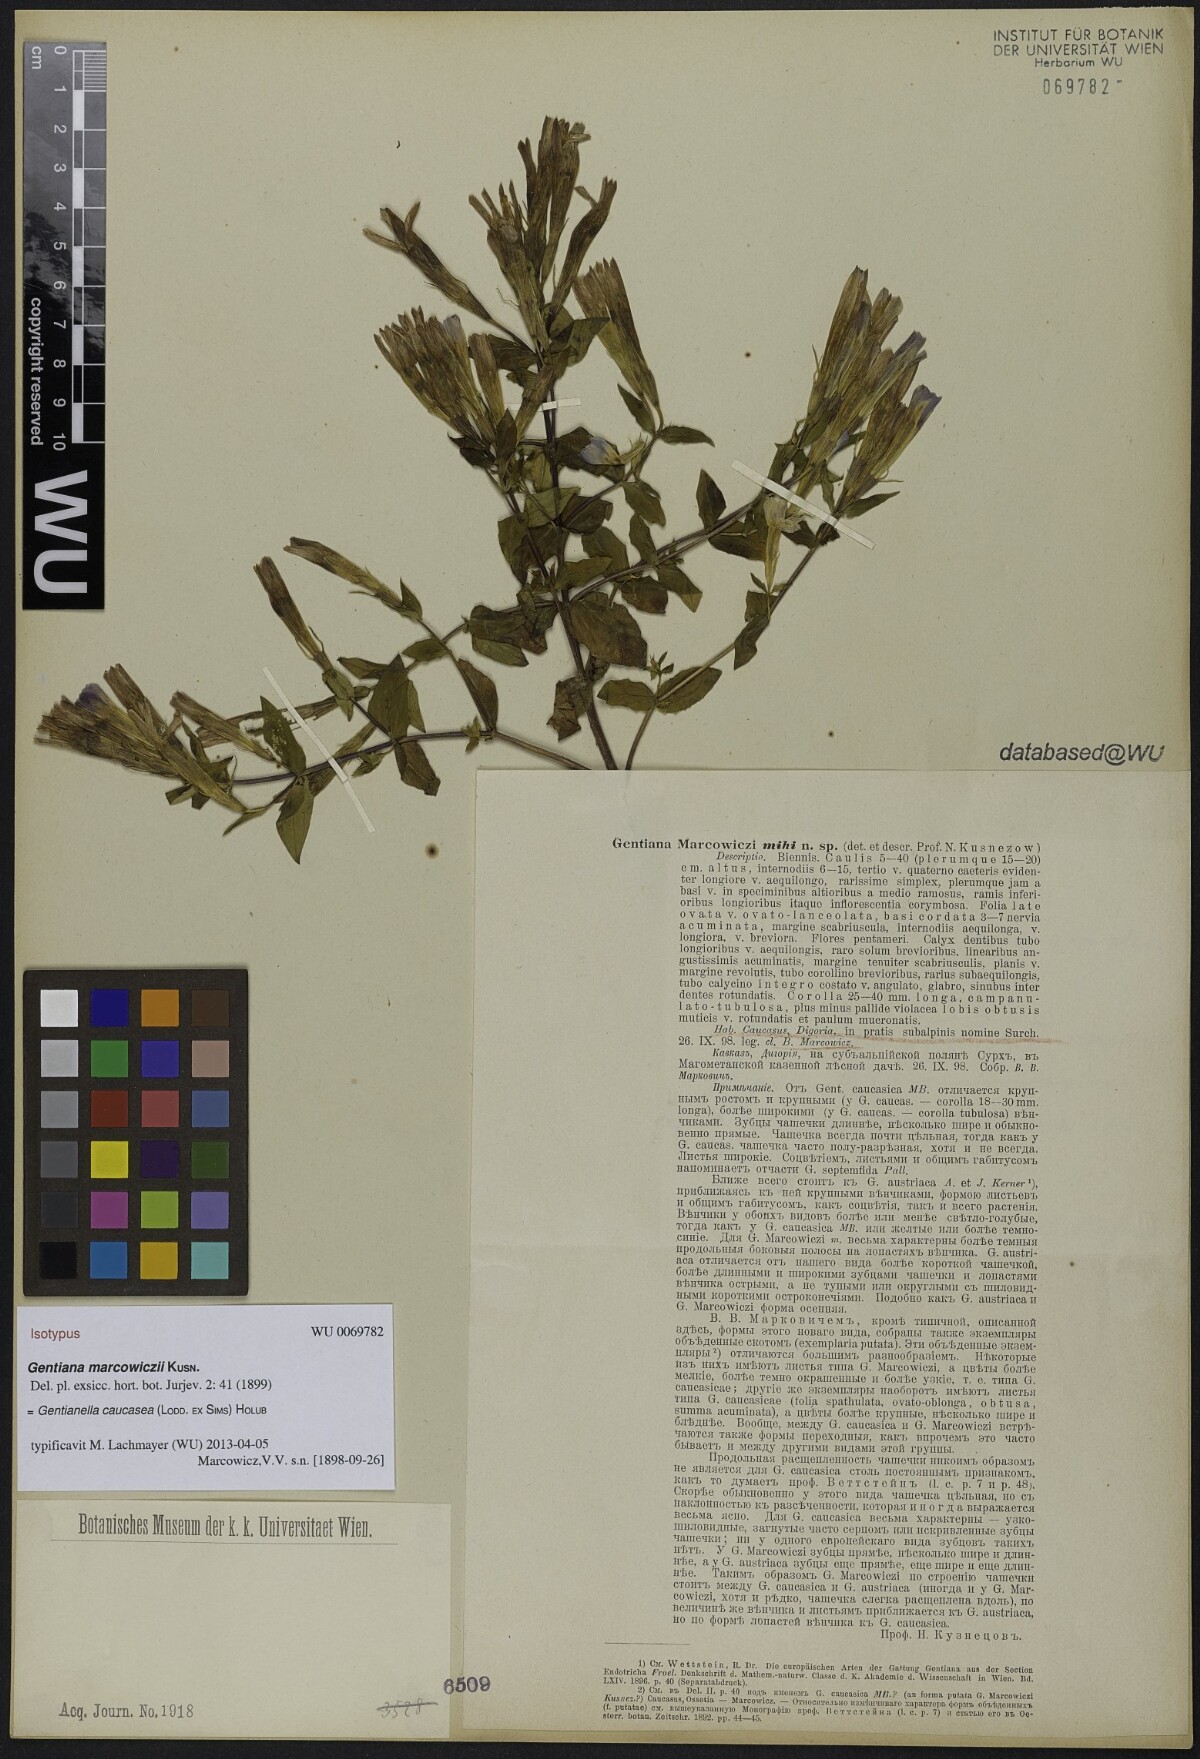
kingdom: Plantae
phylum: Tracheophyta
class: Magnoliopsida
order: Gentianales
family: Gentianaceae
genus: Gentianella
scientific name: Gentianella caucasea
